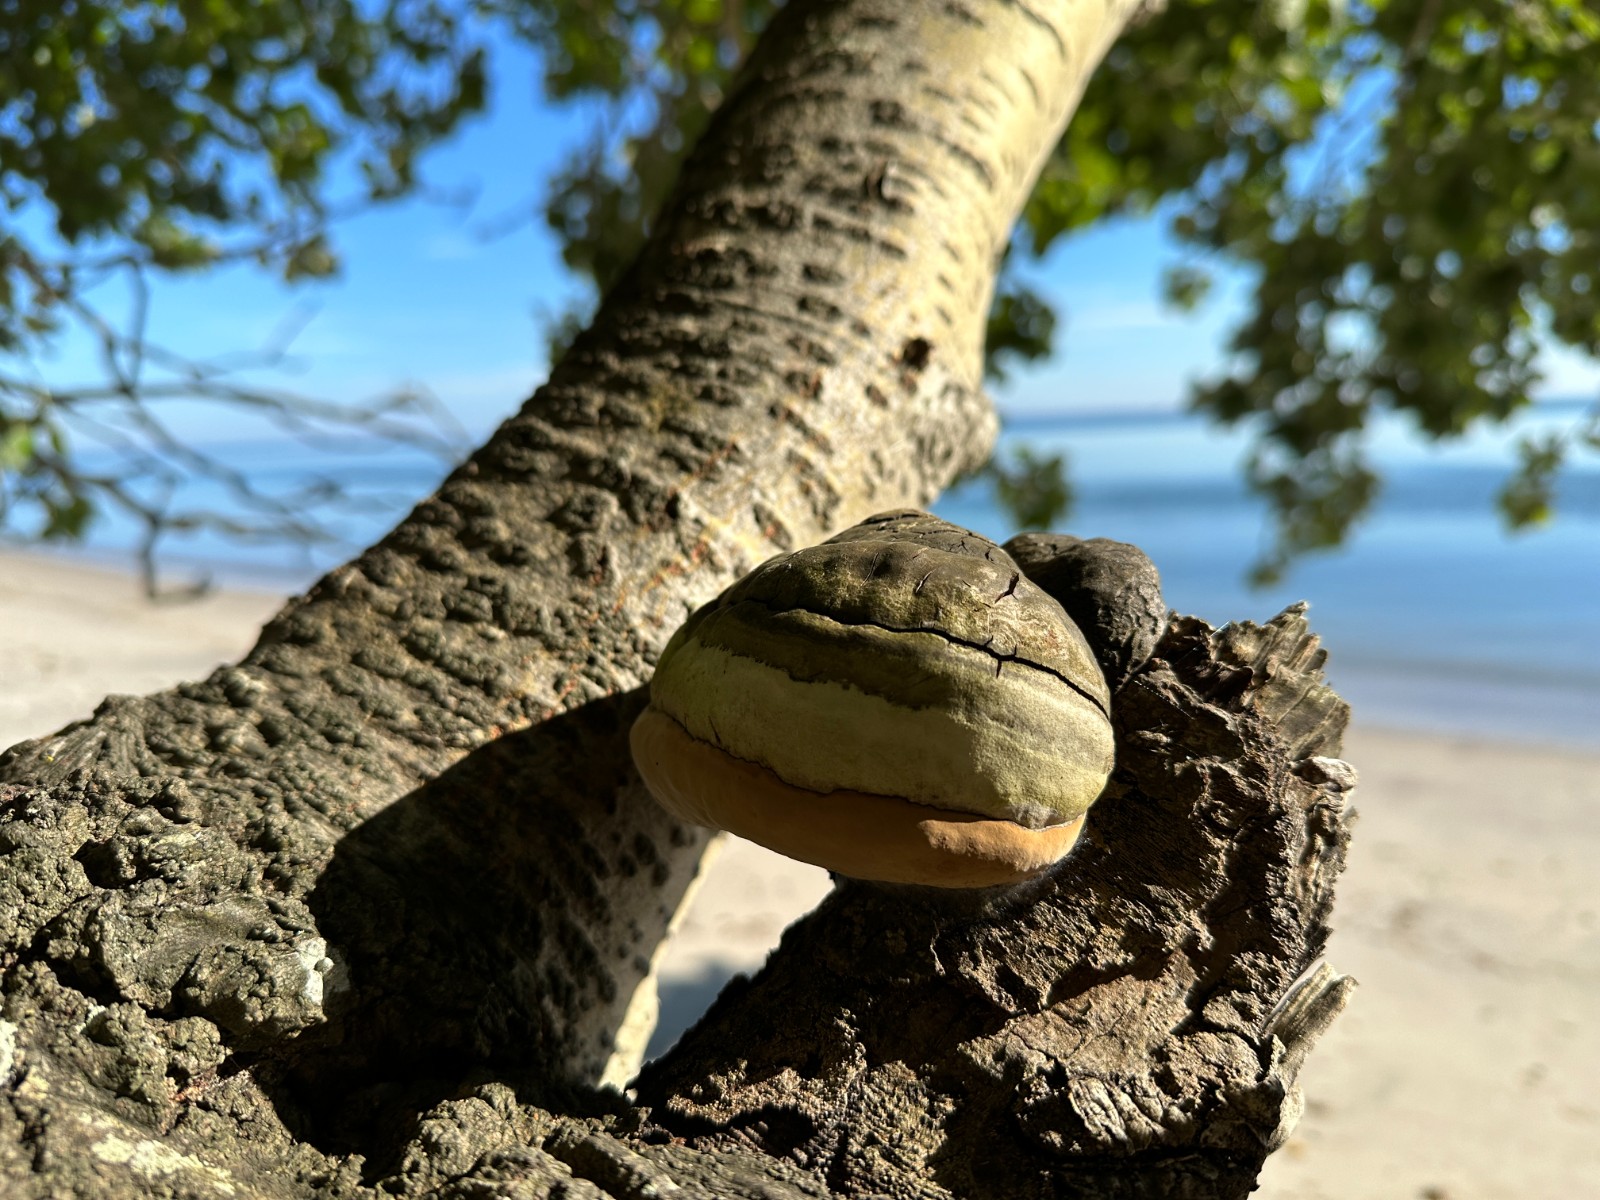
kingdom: Fungi
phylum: Basidiomycota
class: Agaricomycetes
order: Hymenochaetales
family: Hymenochaetaceae
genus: Phellinus
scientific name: Phellinus populicola
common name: poppel-ildporesvamp
